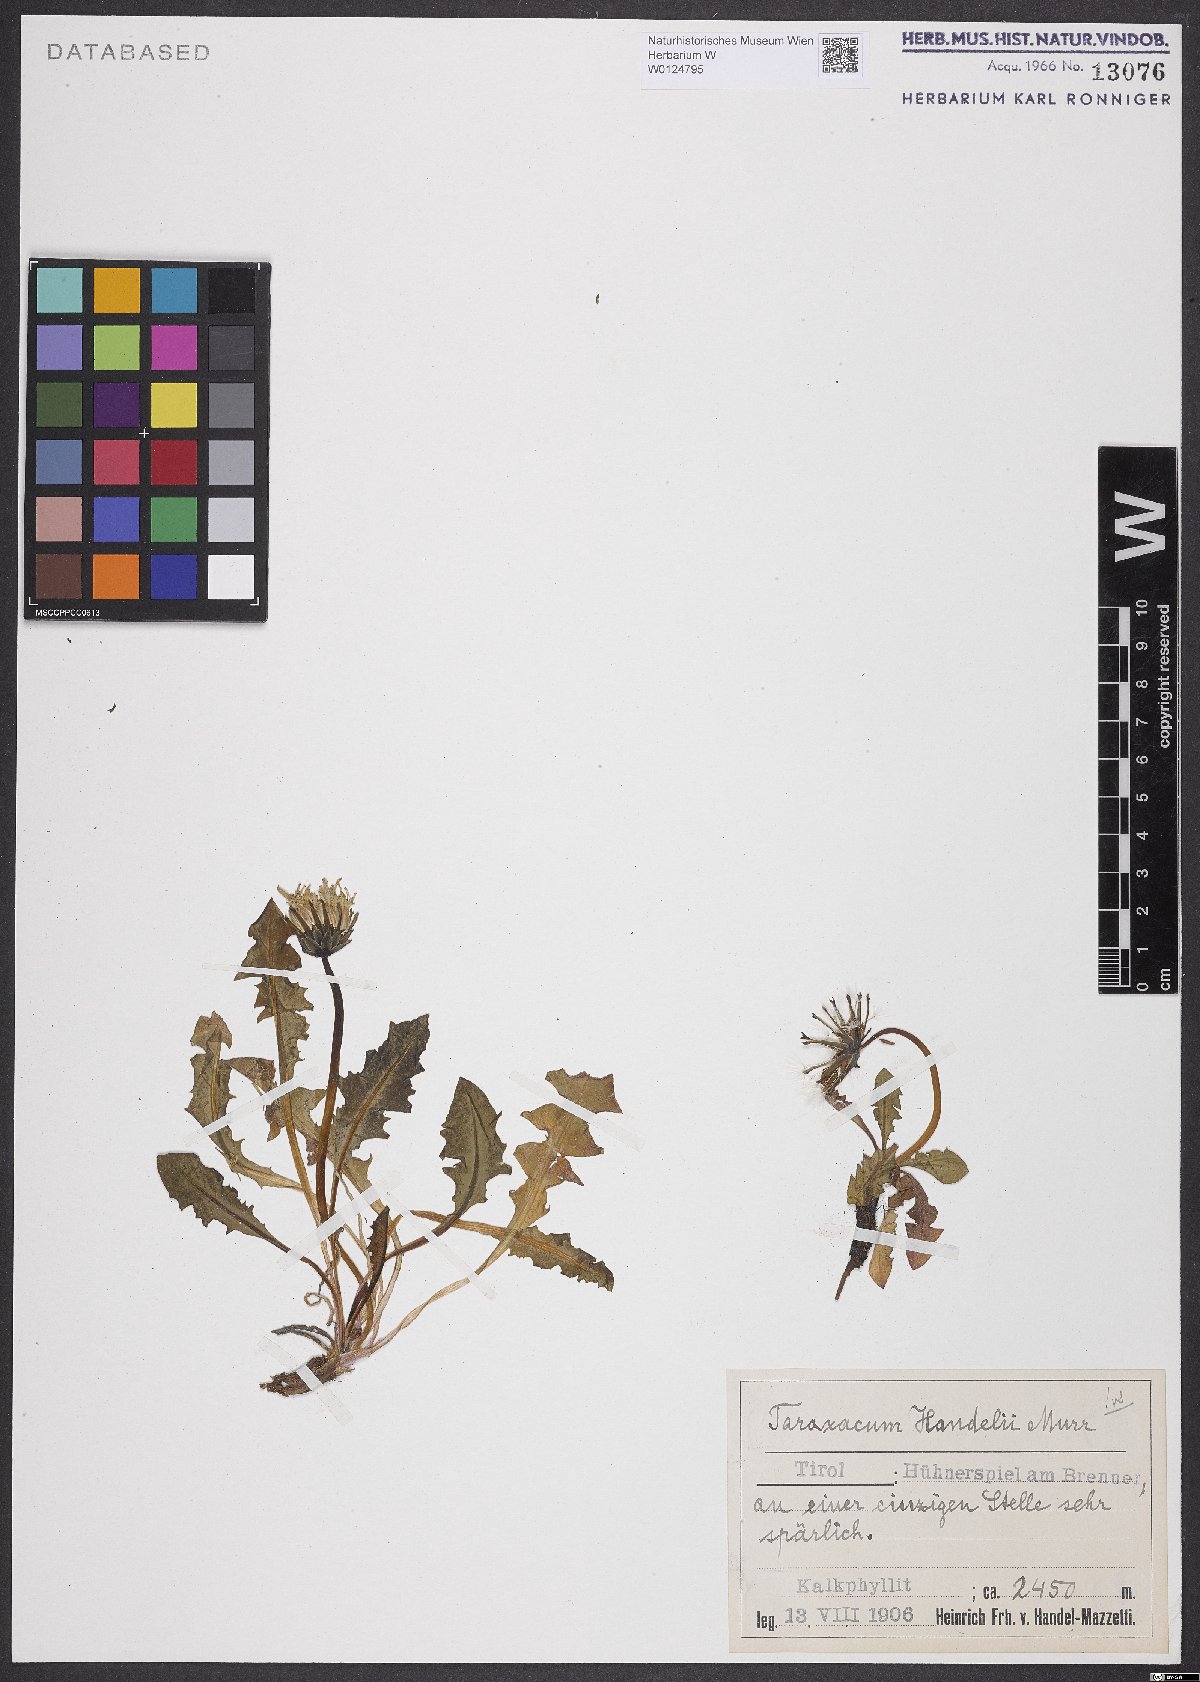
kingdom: Plantae
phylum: Tracheophyta
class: Magnoliopsida
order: Asterales
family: Asteraceae
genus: Taraxacum
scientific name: Taraxacum handelii
